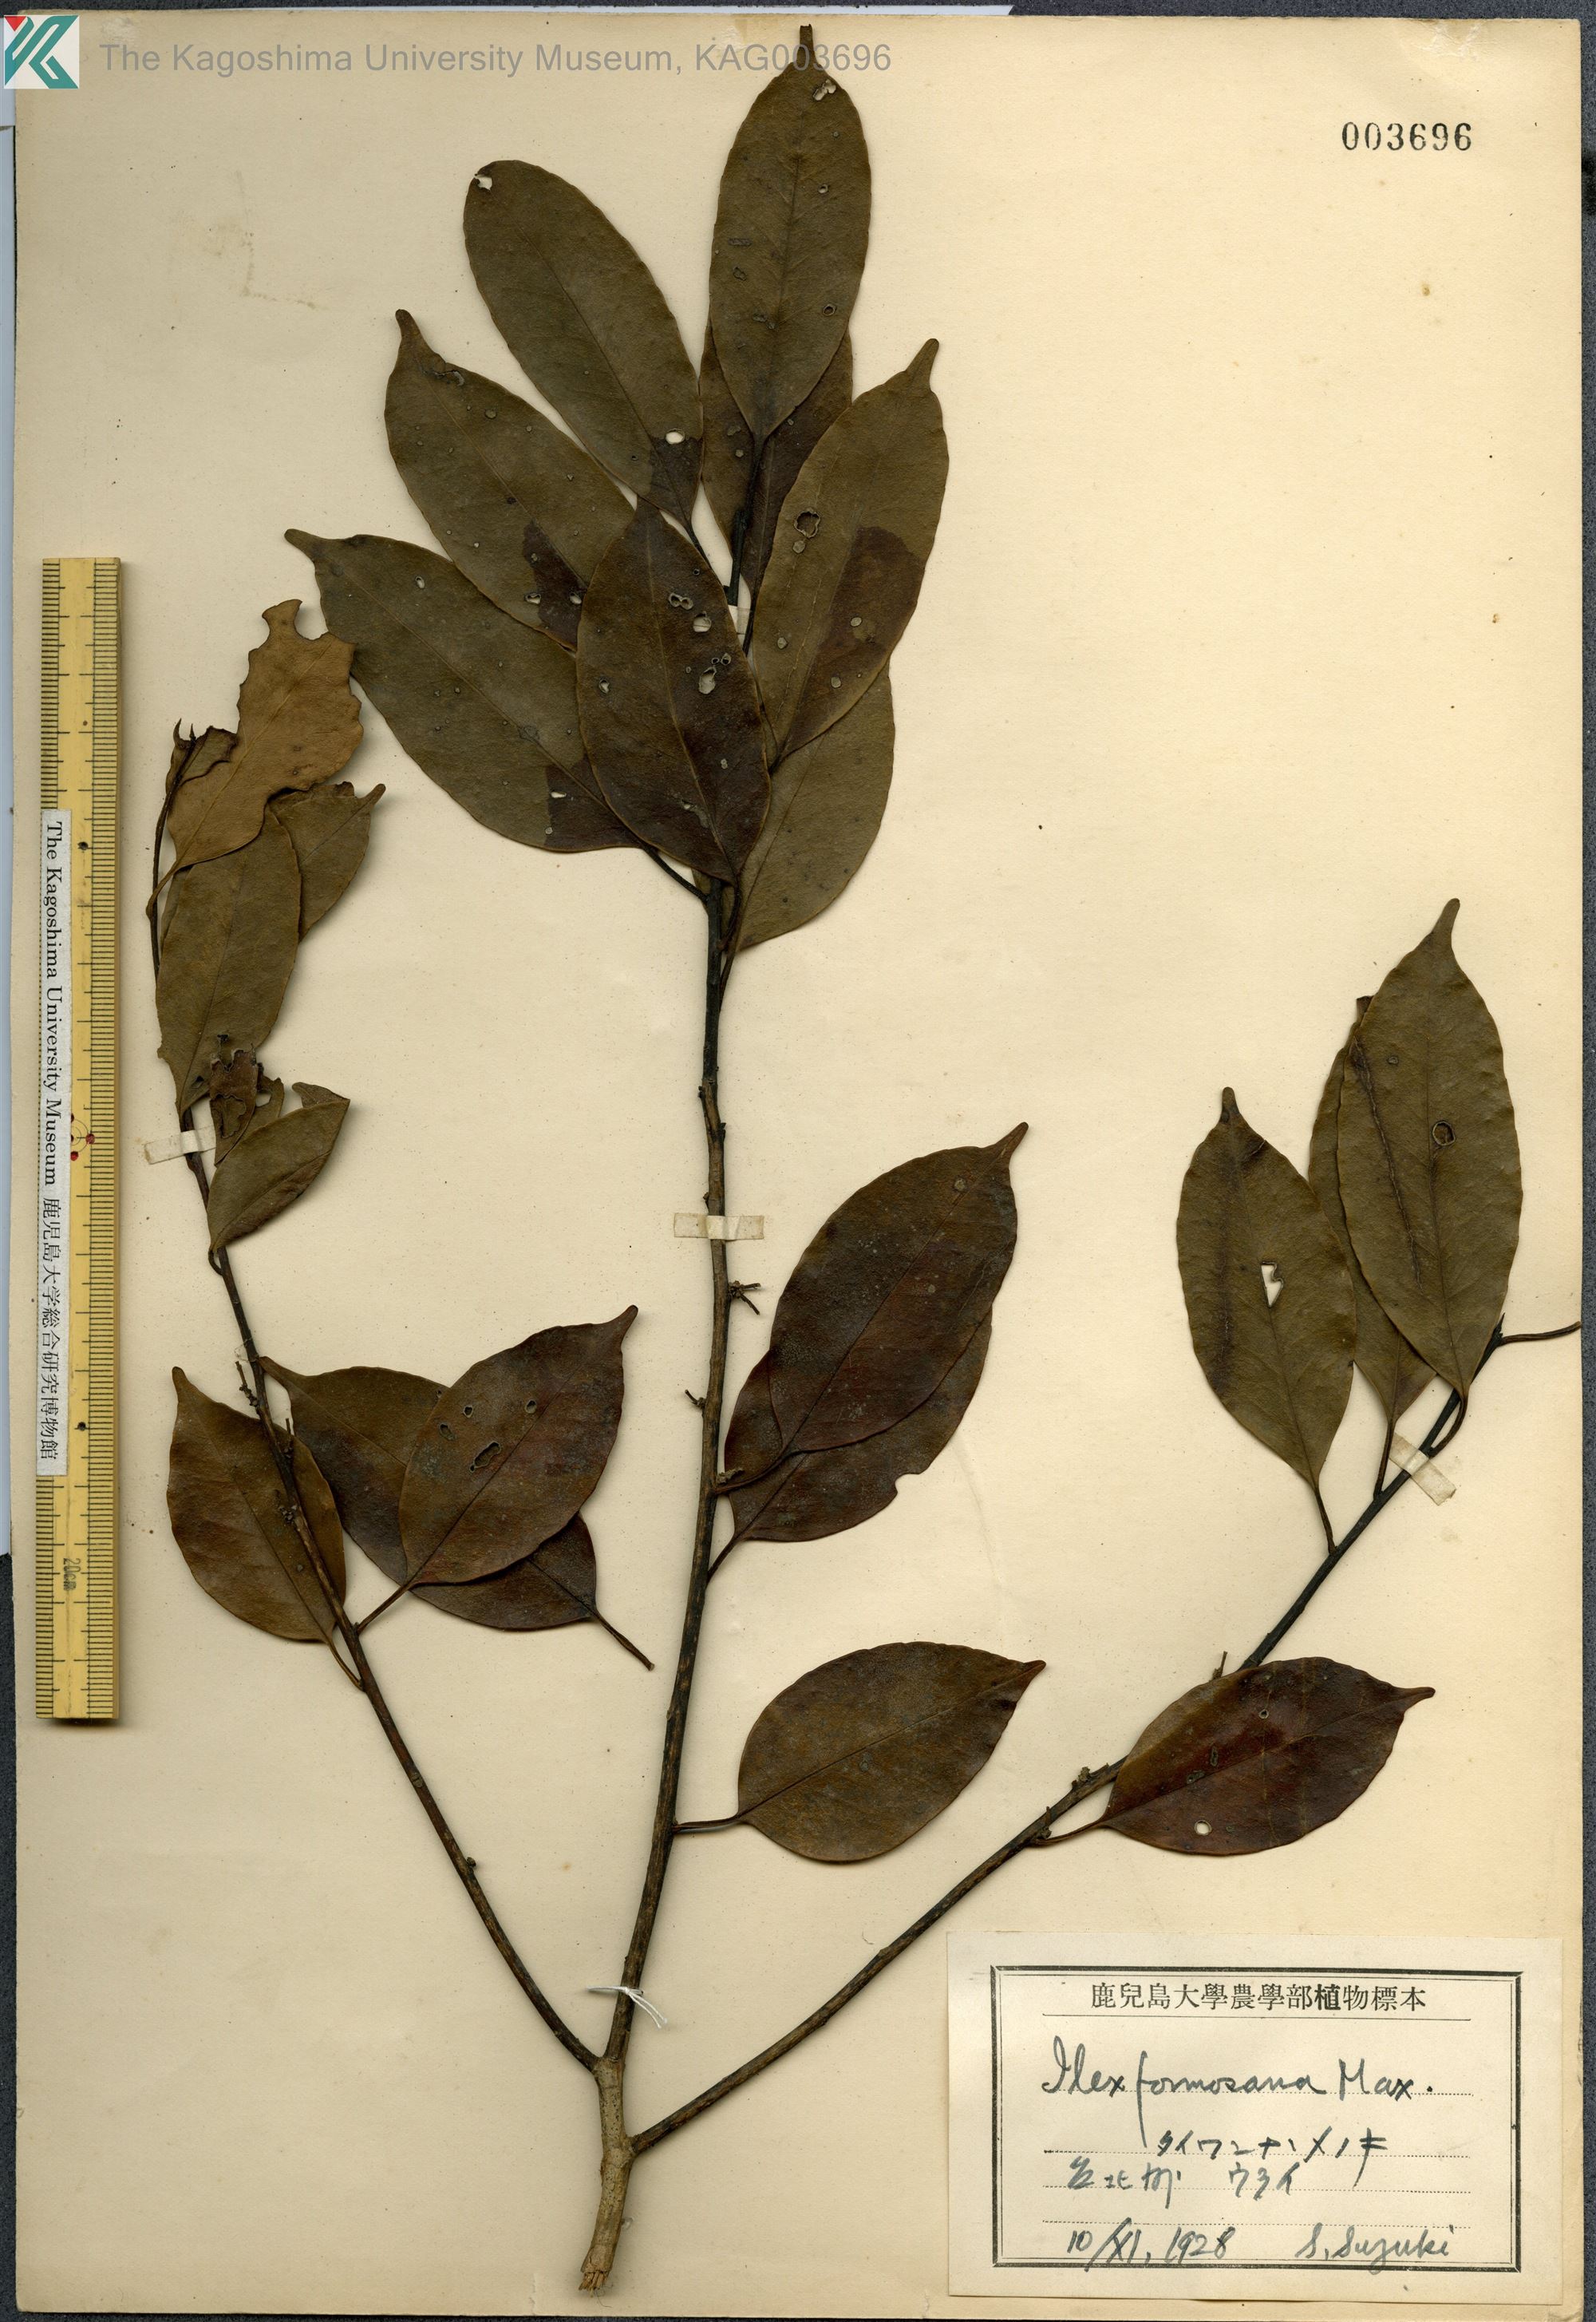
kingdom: Plantae
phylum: Tracheophyta
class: Magnoliopsida
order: Aquifoliales
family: Aquifoliaceae
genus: Ilex
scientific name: Ilex formosana
